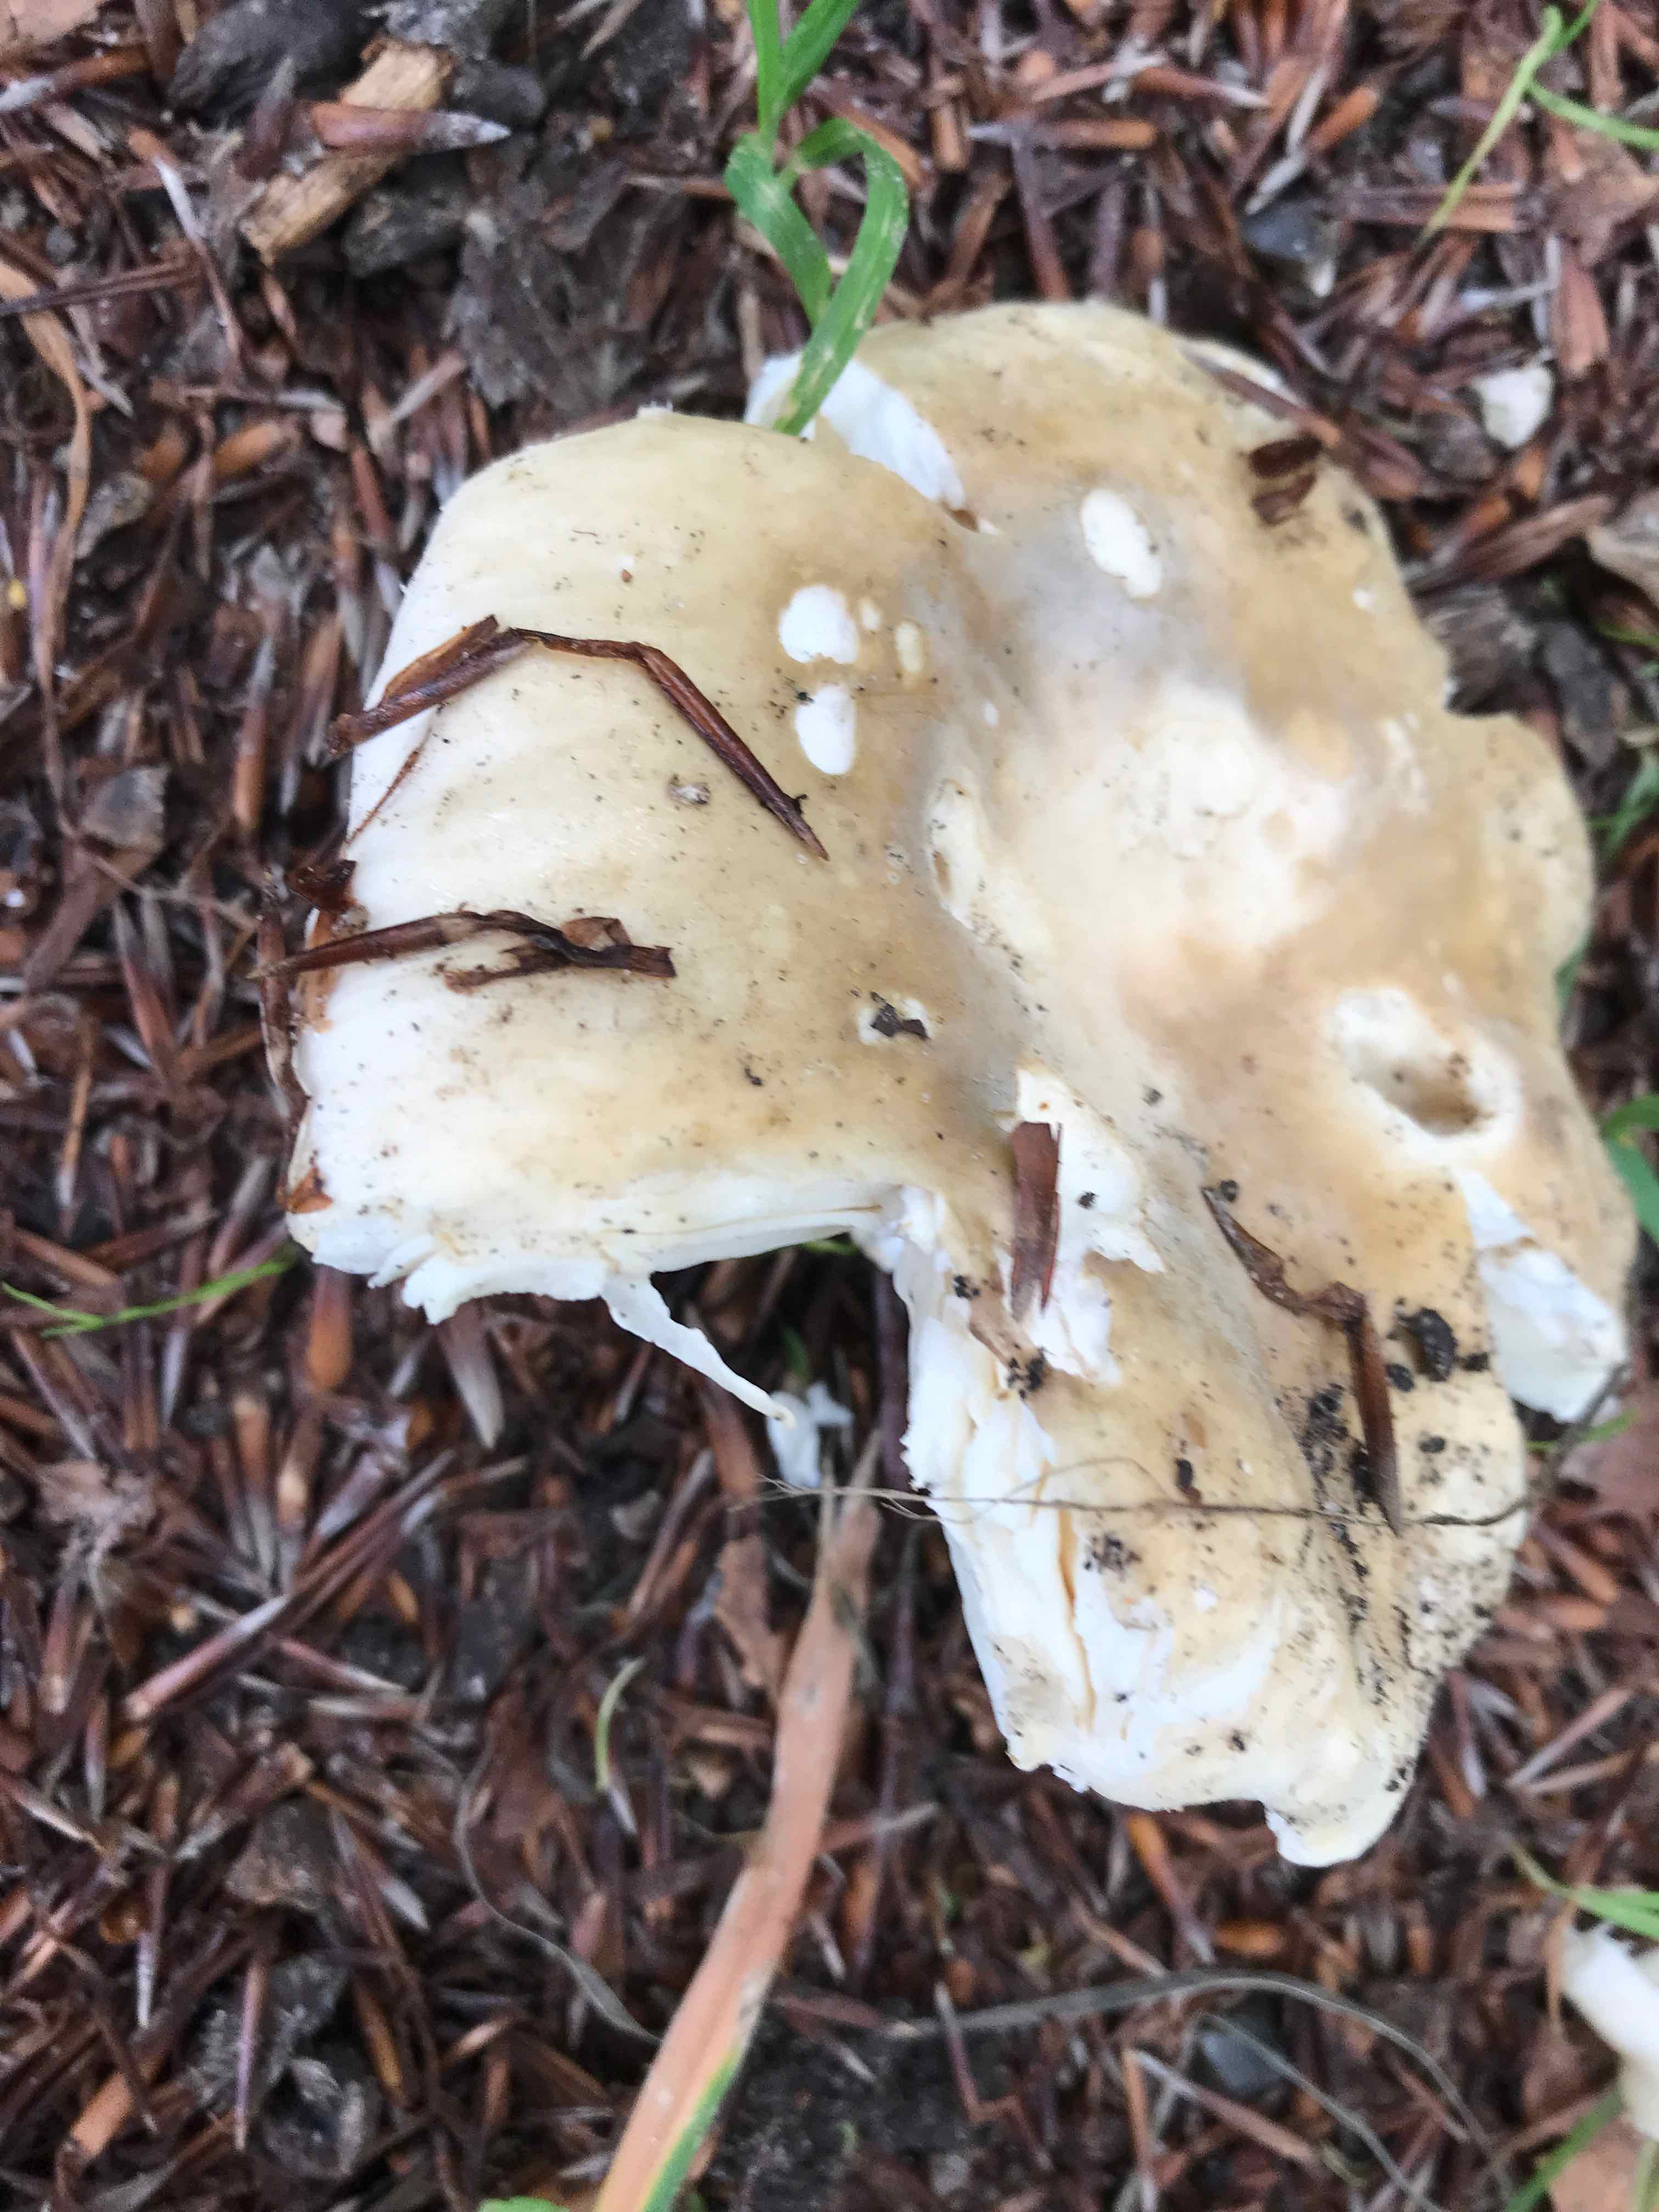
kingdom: Fungi
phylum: Basidiomycota
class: Agaricomycetes
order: Russulales
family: Russulaceae
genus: Russula
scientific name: Russula
